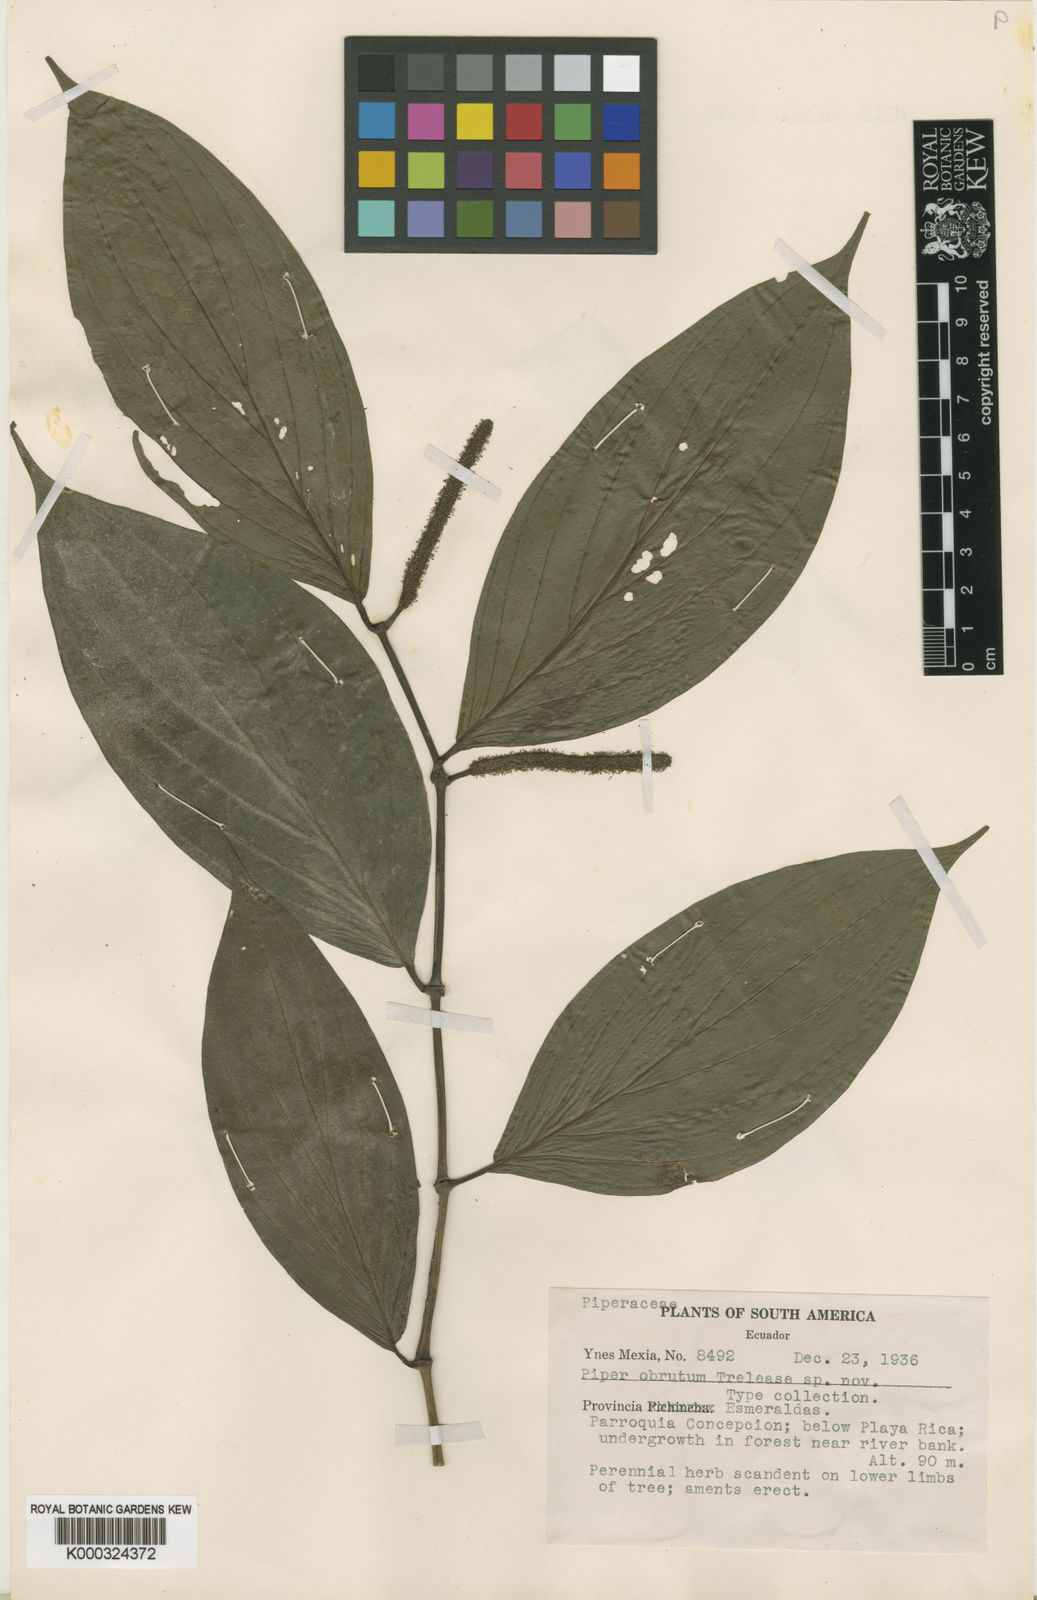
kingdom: Plantae
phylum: Tracheophyta
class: Magnoliopsida
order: Piperales
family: Piperaceae
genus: Piper
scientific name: Piper obrutum
